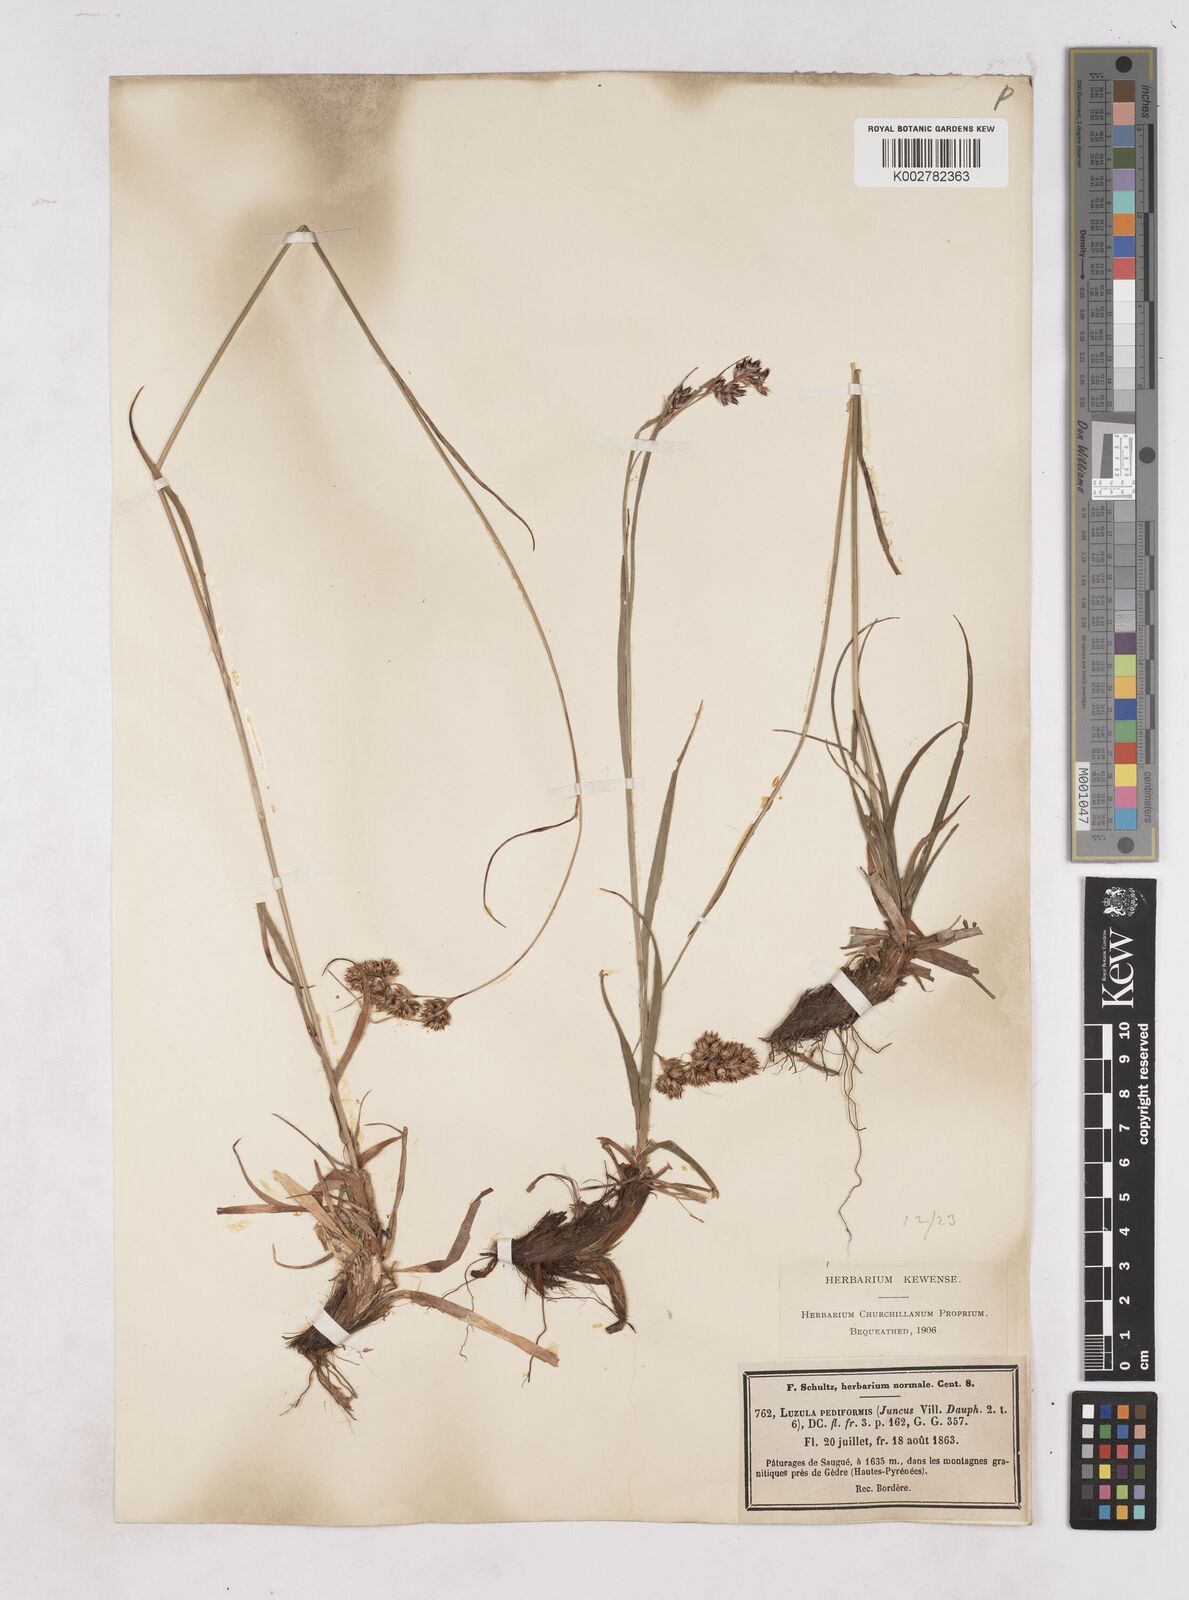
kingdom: Plantae
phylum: Tracheophyta
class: Liliopsida
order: Poales
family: Juncaceae
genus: Luzula
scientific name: Luzula pediformis
